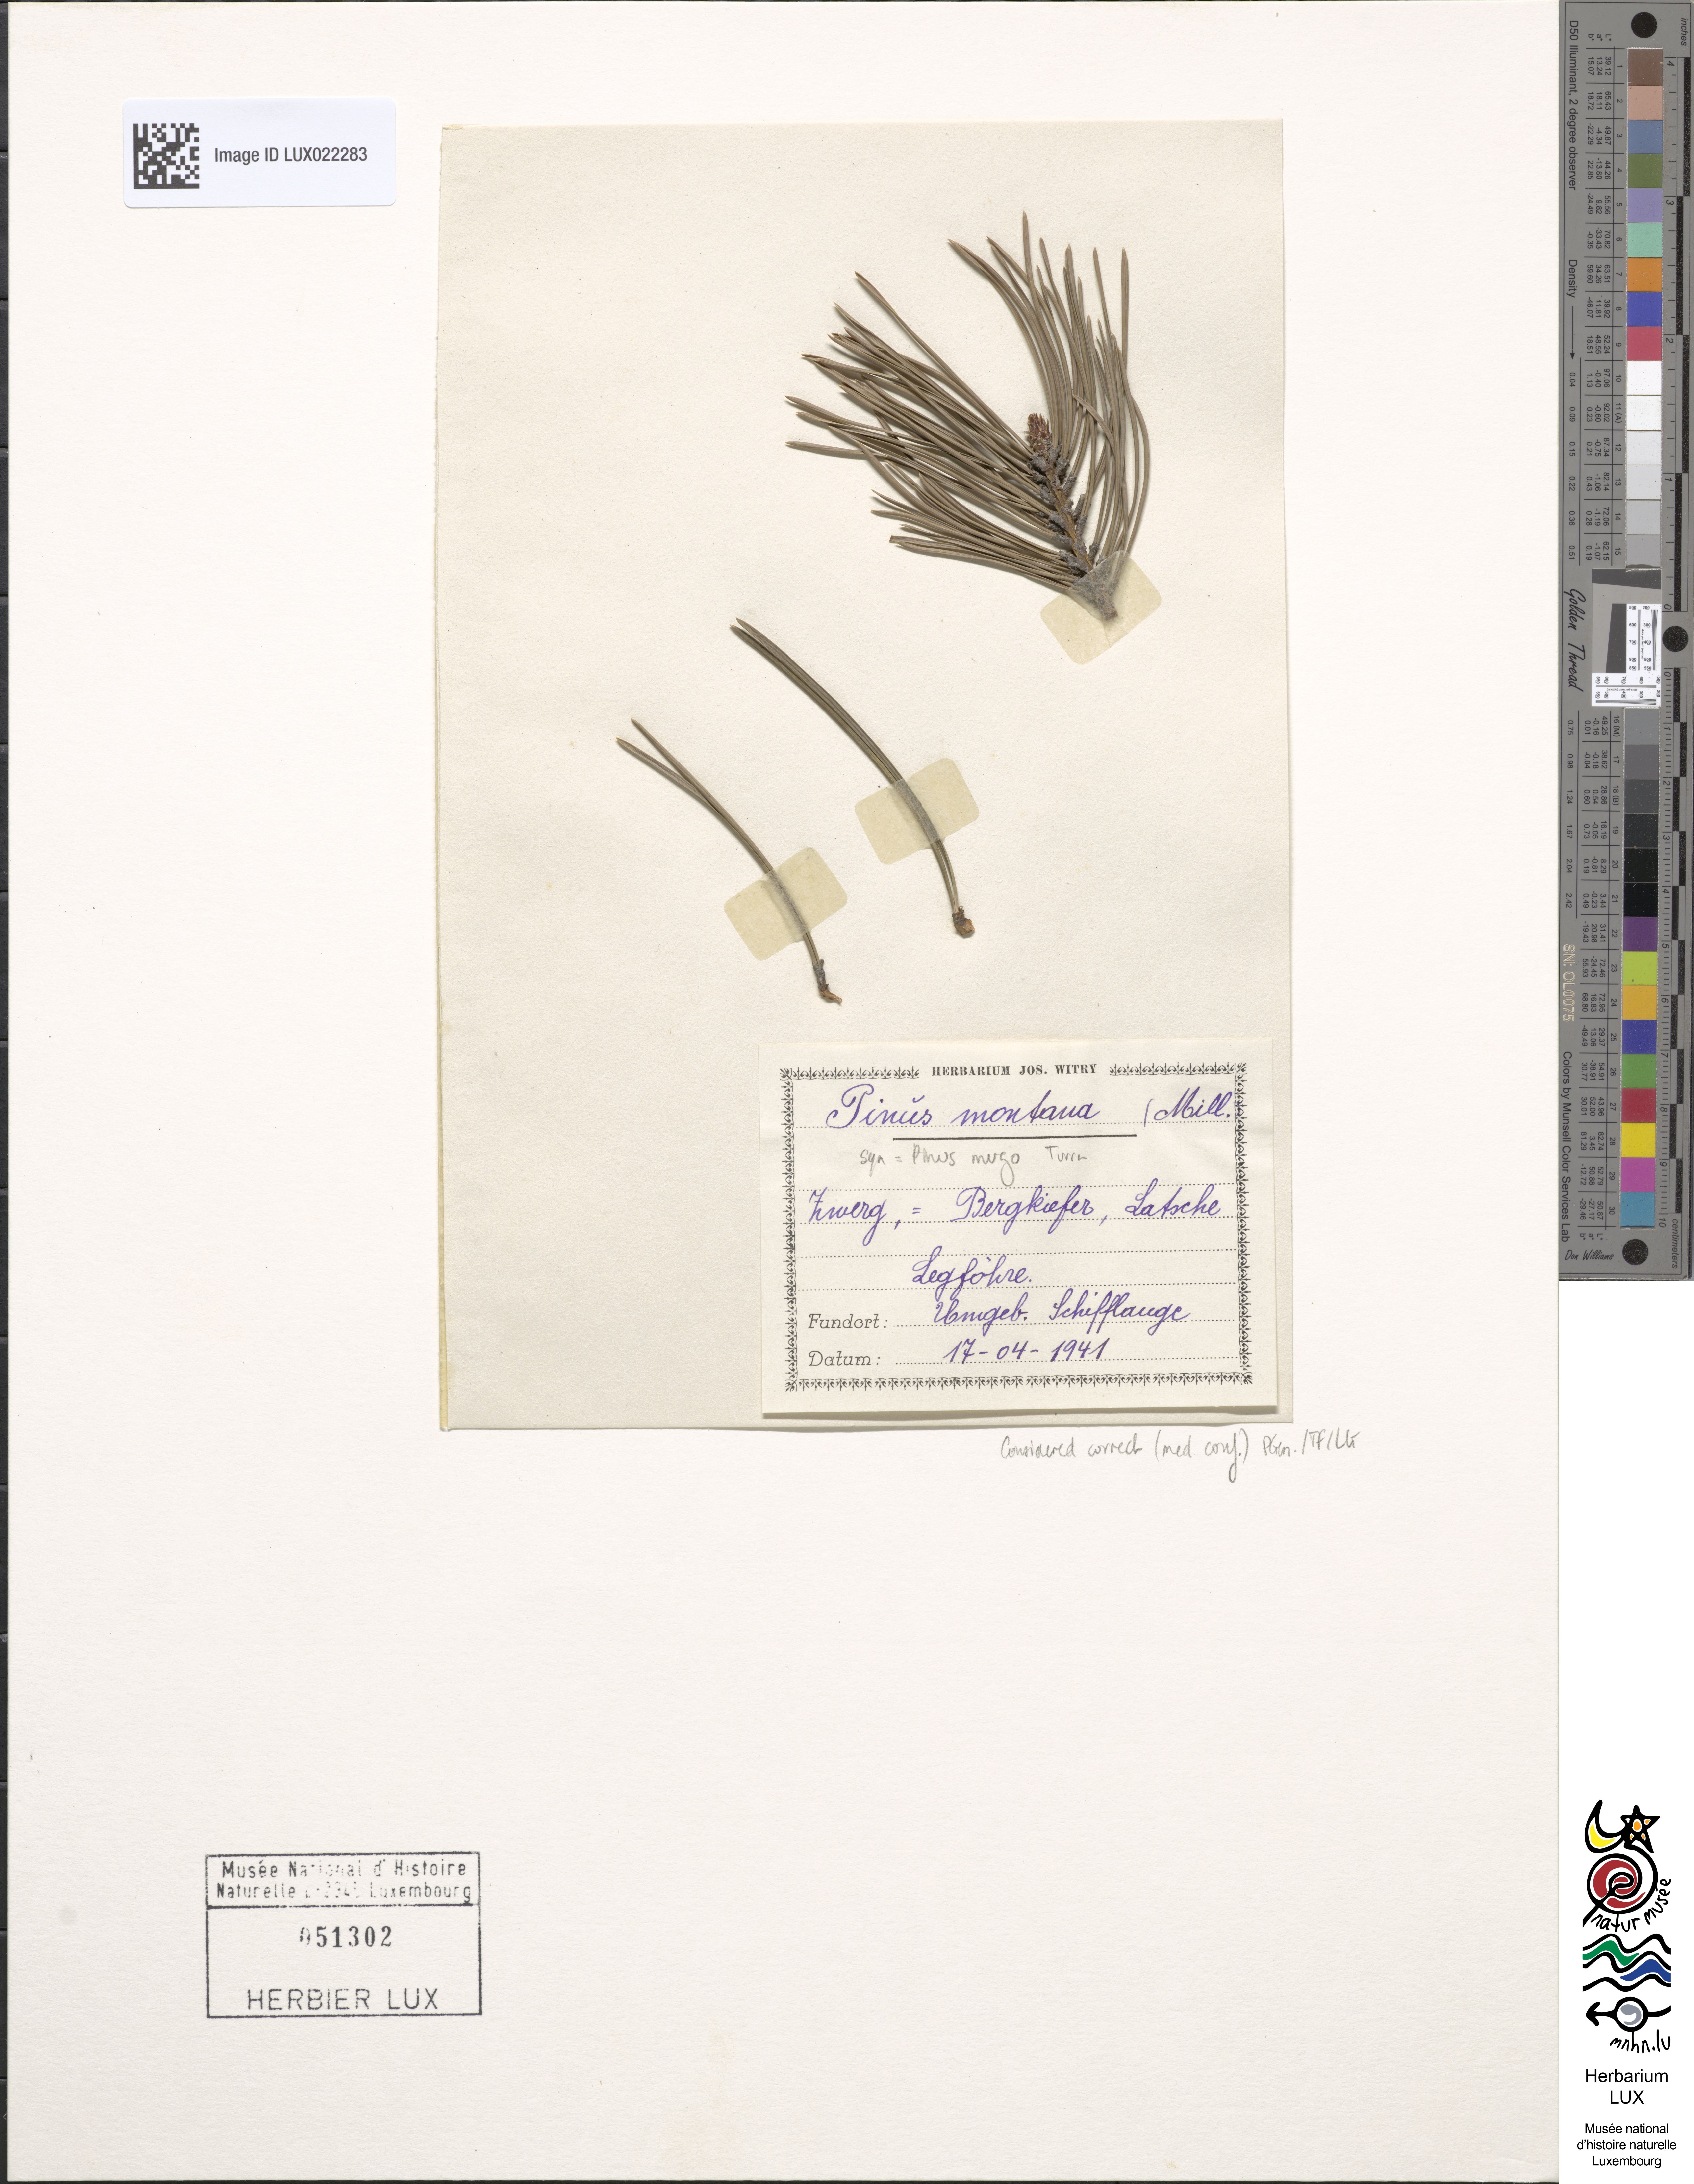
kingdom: Plantae
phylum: Tracheophyta
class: Pinopsida
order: Pinales
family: Pinaceae
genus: Pinus
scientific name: Pinus mugo
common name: Mugo pine
